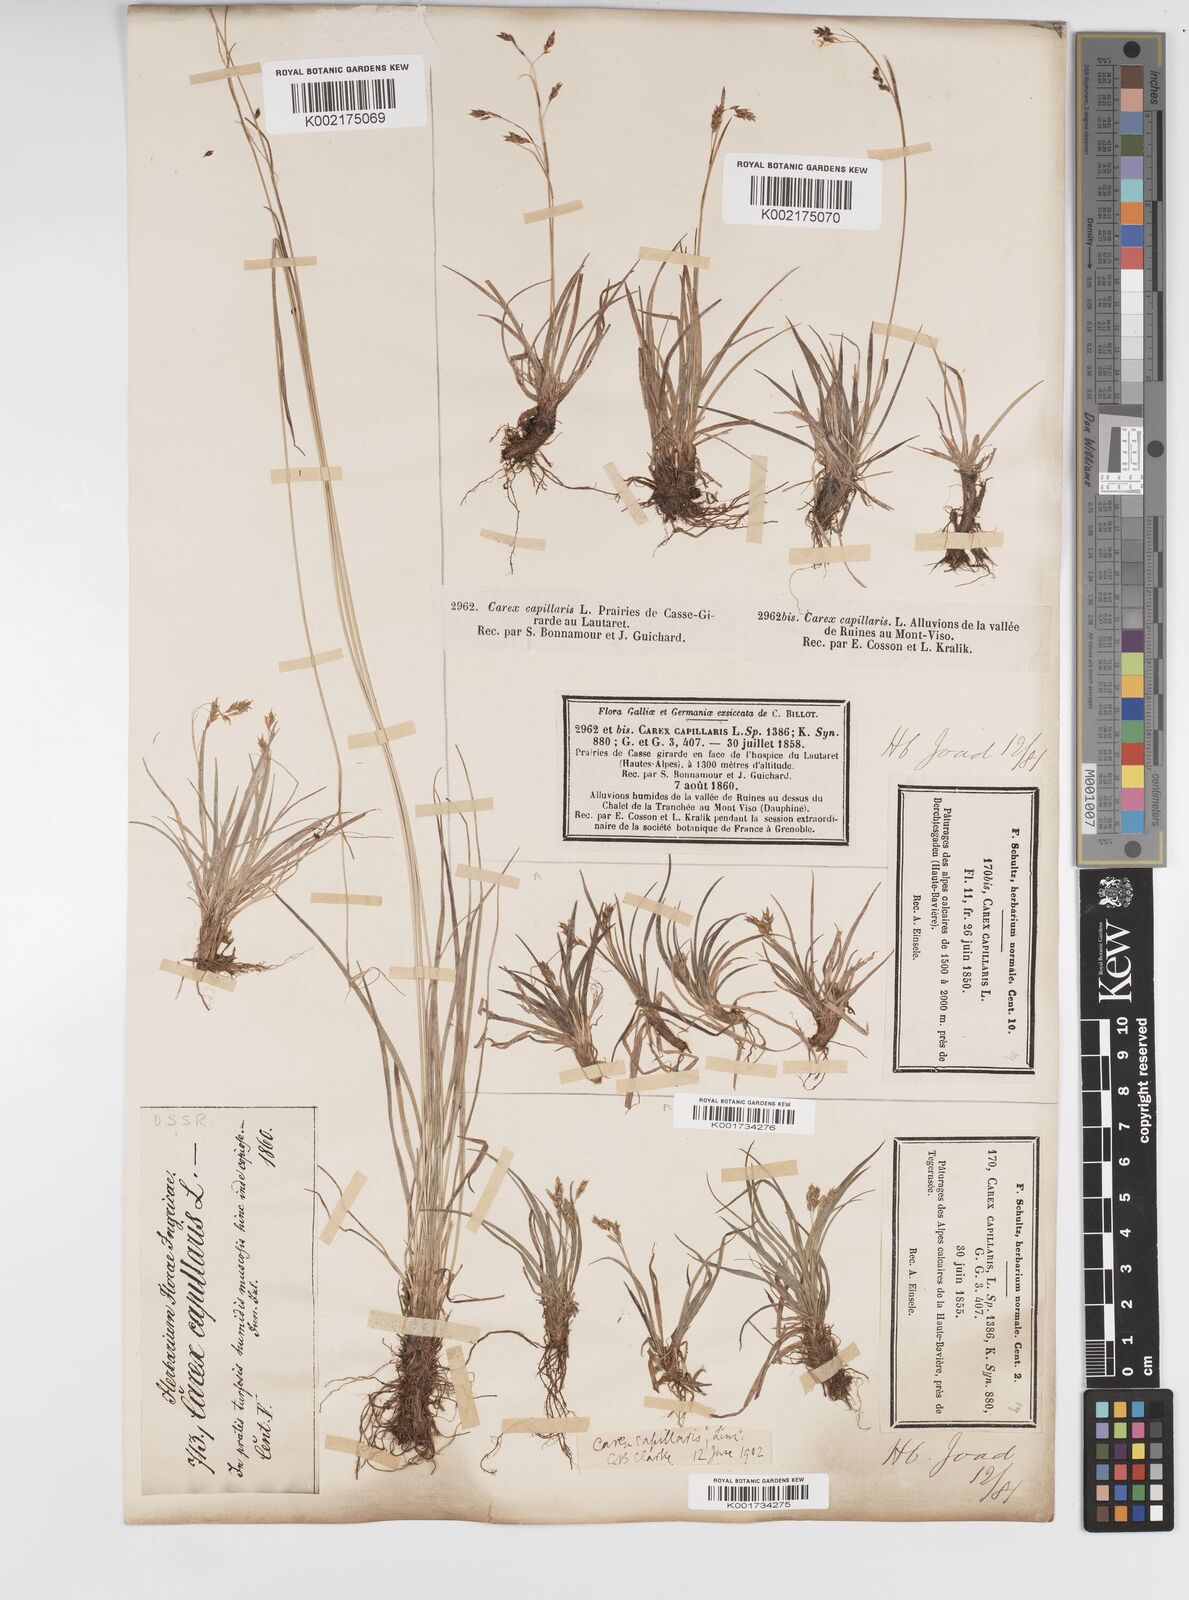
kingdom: Plantae
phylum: Tracheophyta
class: Liliopsida
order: Poales
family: Cyperaceae
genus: Carex
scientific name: Carex capillaris
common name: Hair sedge
